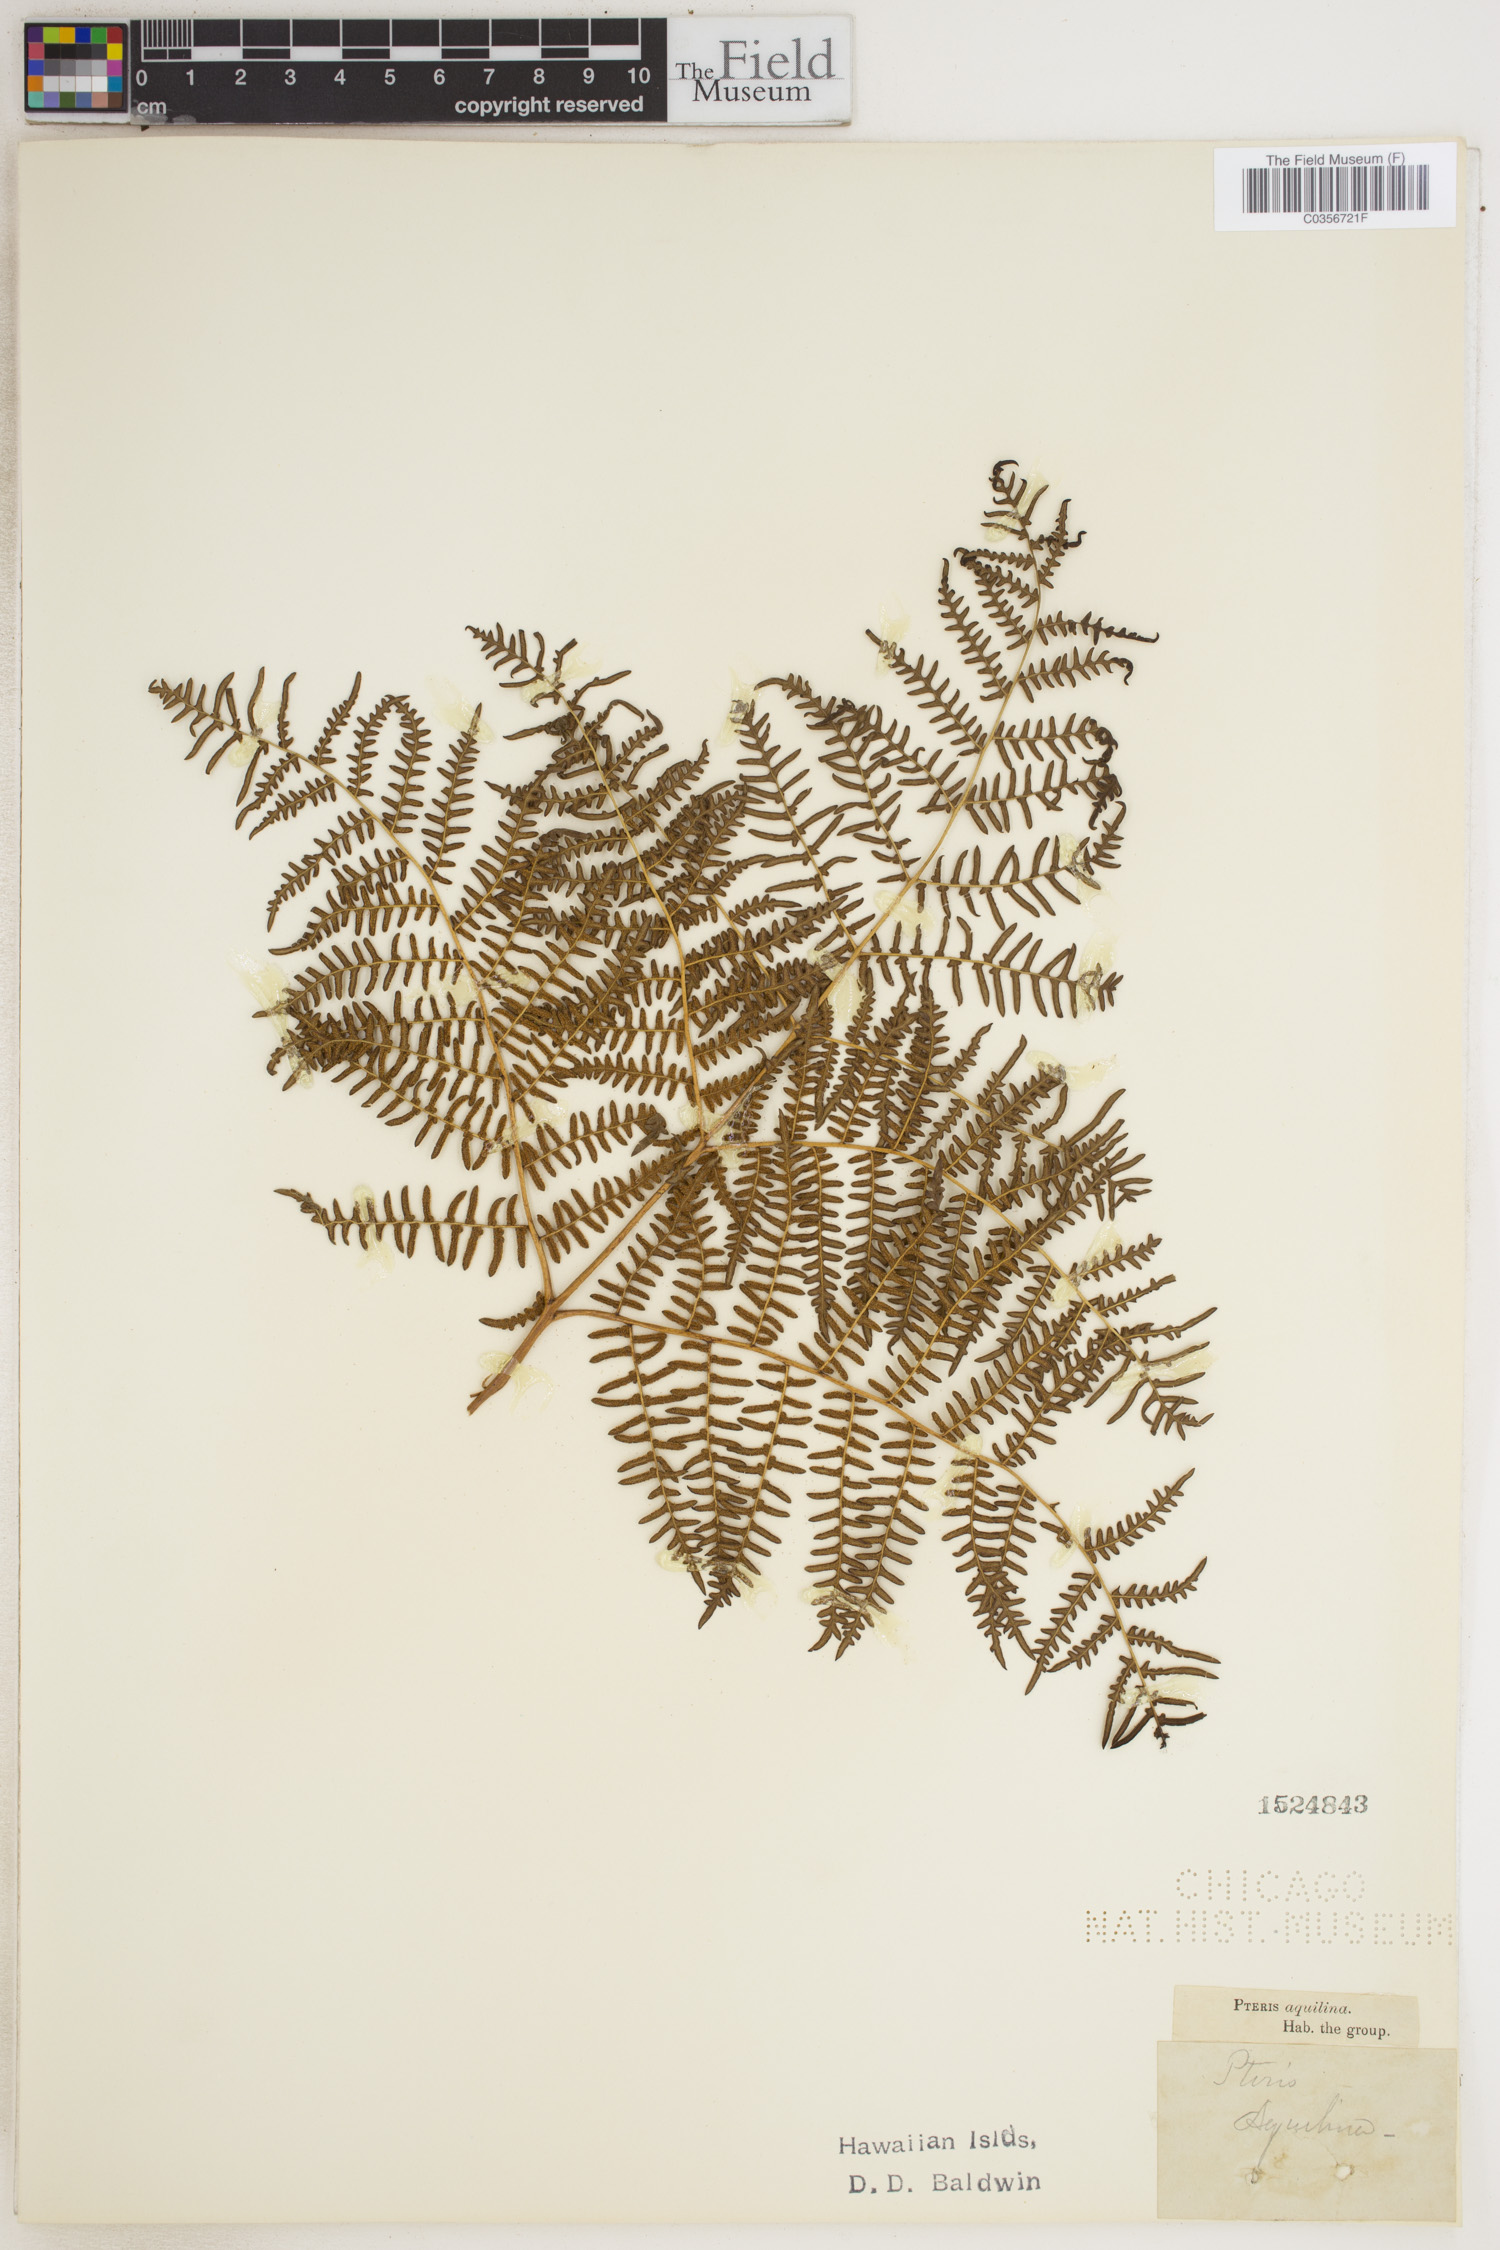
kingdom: Plantae
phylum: Tracheophyta
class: Polypodiopsida
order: Polypodiales
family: Dennstaedtiaceae
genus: Pteridium
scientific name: Pteridium aquilinum
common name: Bracken
